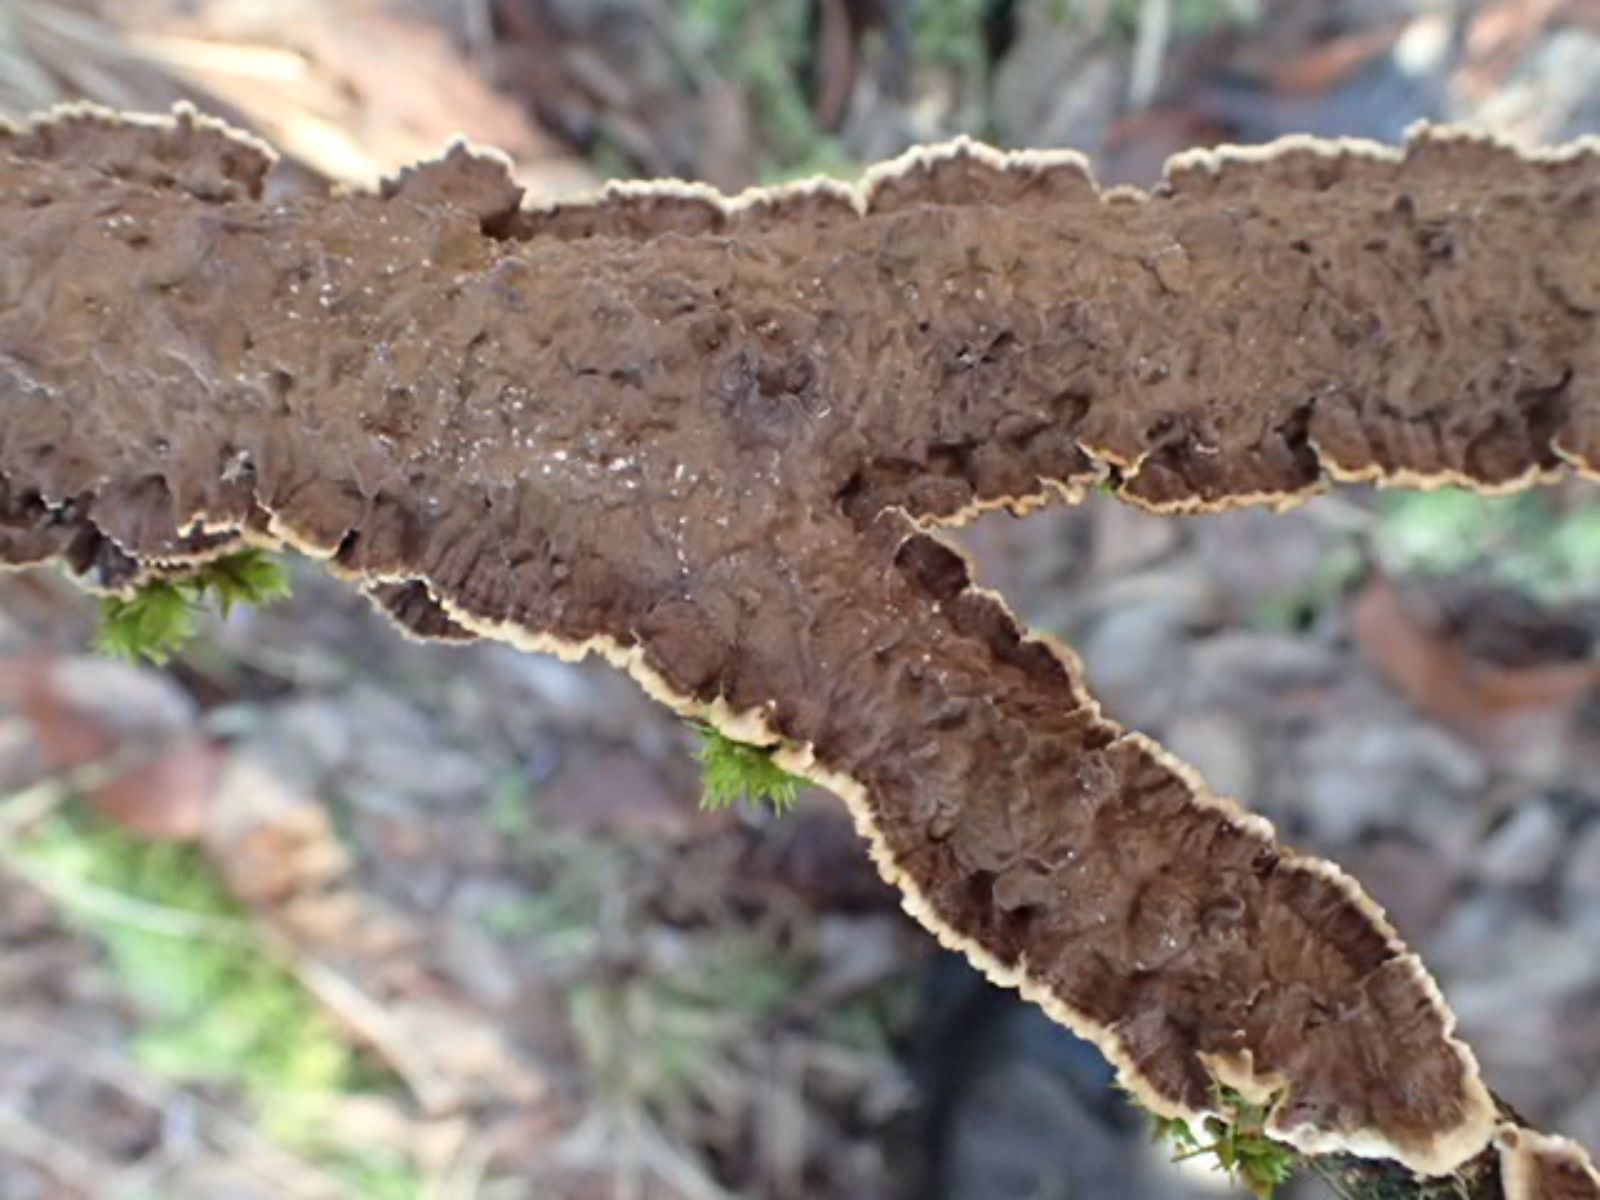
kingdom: Fungi
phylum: Basidiomycota
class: Agaricomycetes
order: Hymenochaetales
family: Hymenochaetaceae
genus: Hydnoporia
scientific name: Hydnoporia tabacina
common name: tobaksbrun ruslædersvamp
